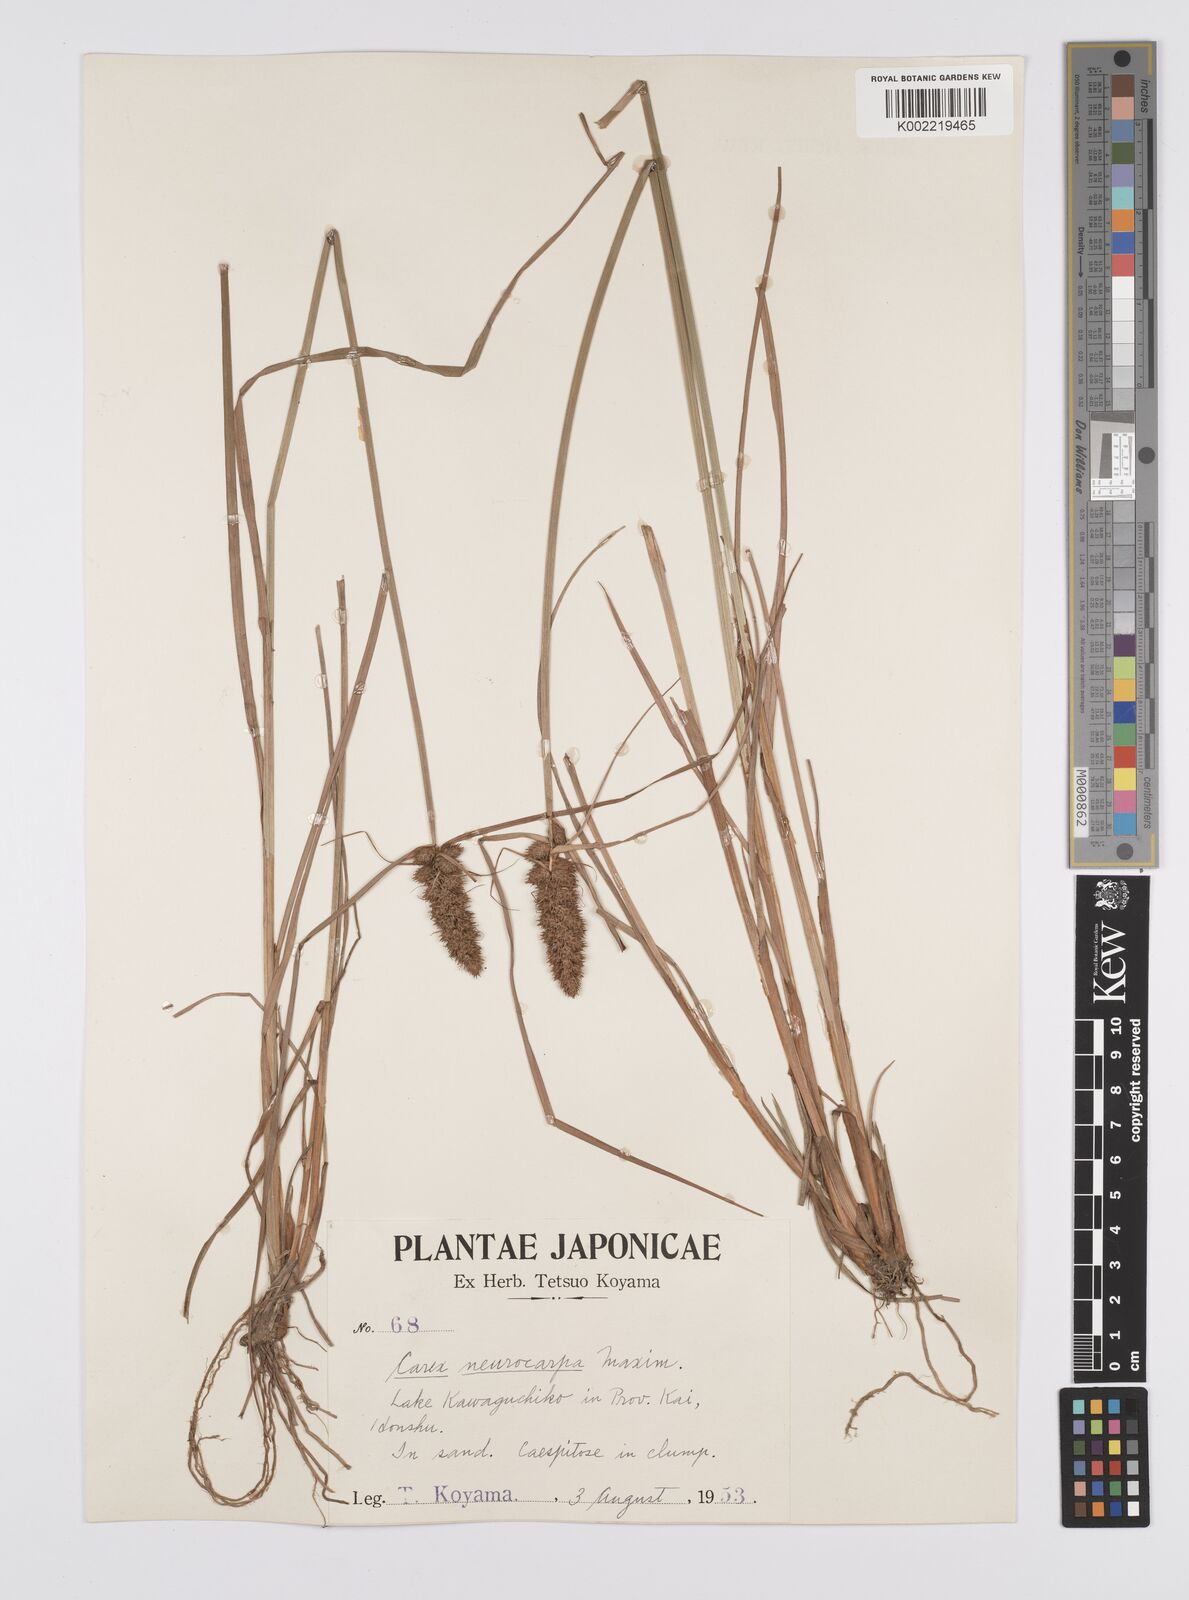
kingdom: Plantae
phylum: Tracheophyta
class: Liliopsida
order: Poales
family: Cyperaceae
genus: Carex
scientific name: Carex neurocarpa
